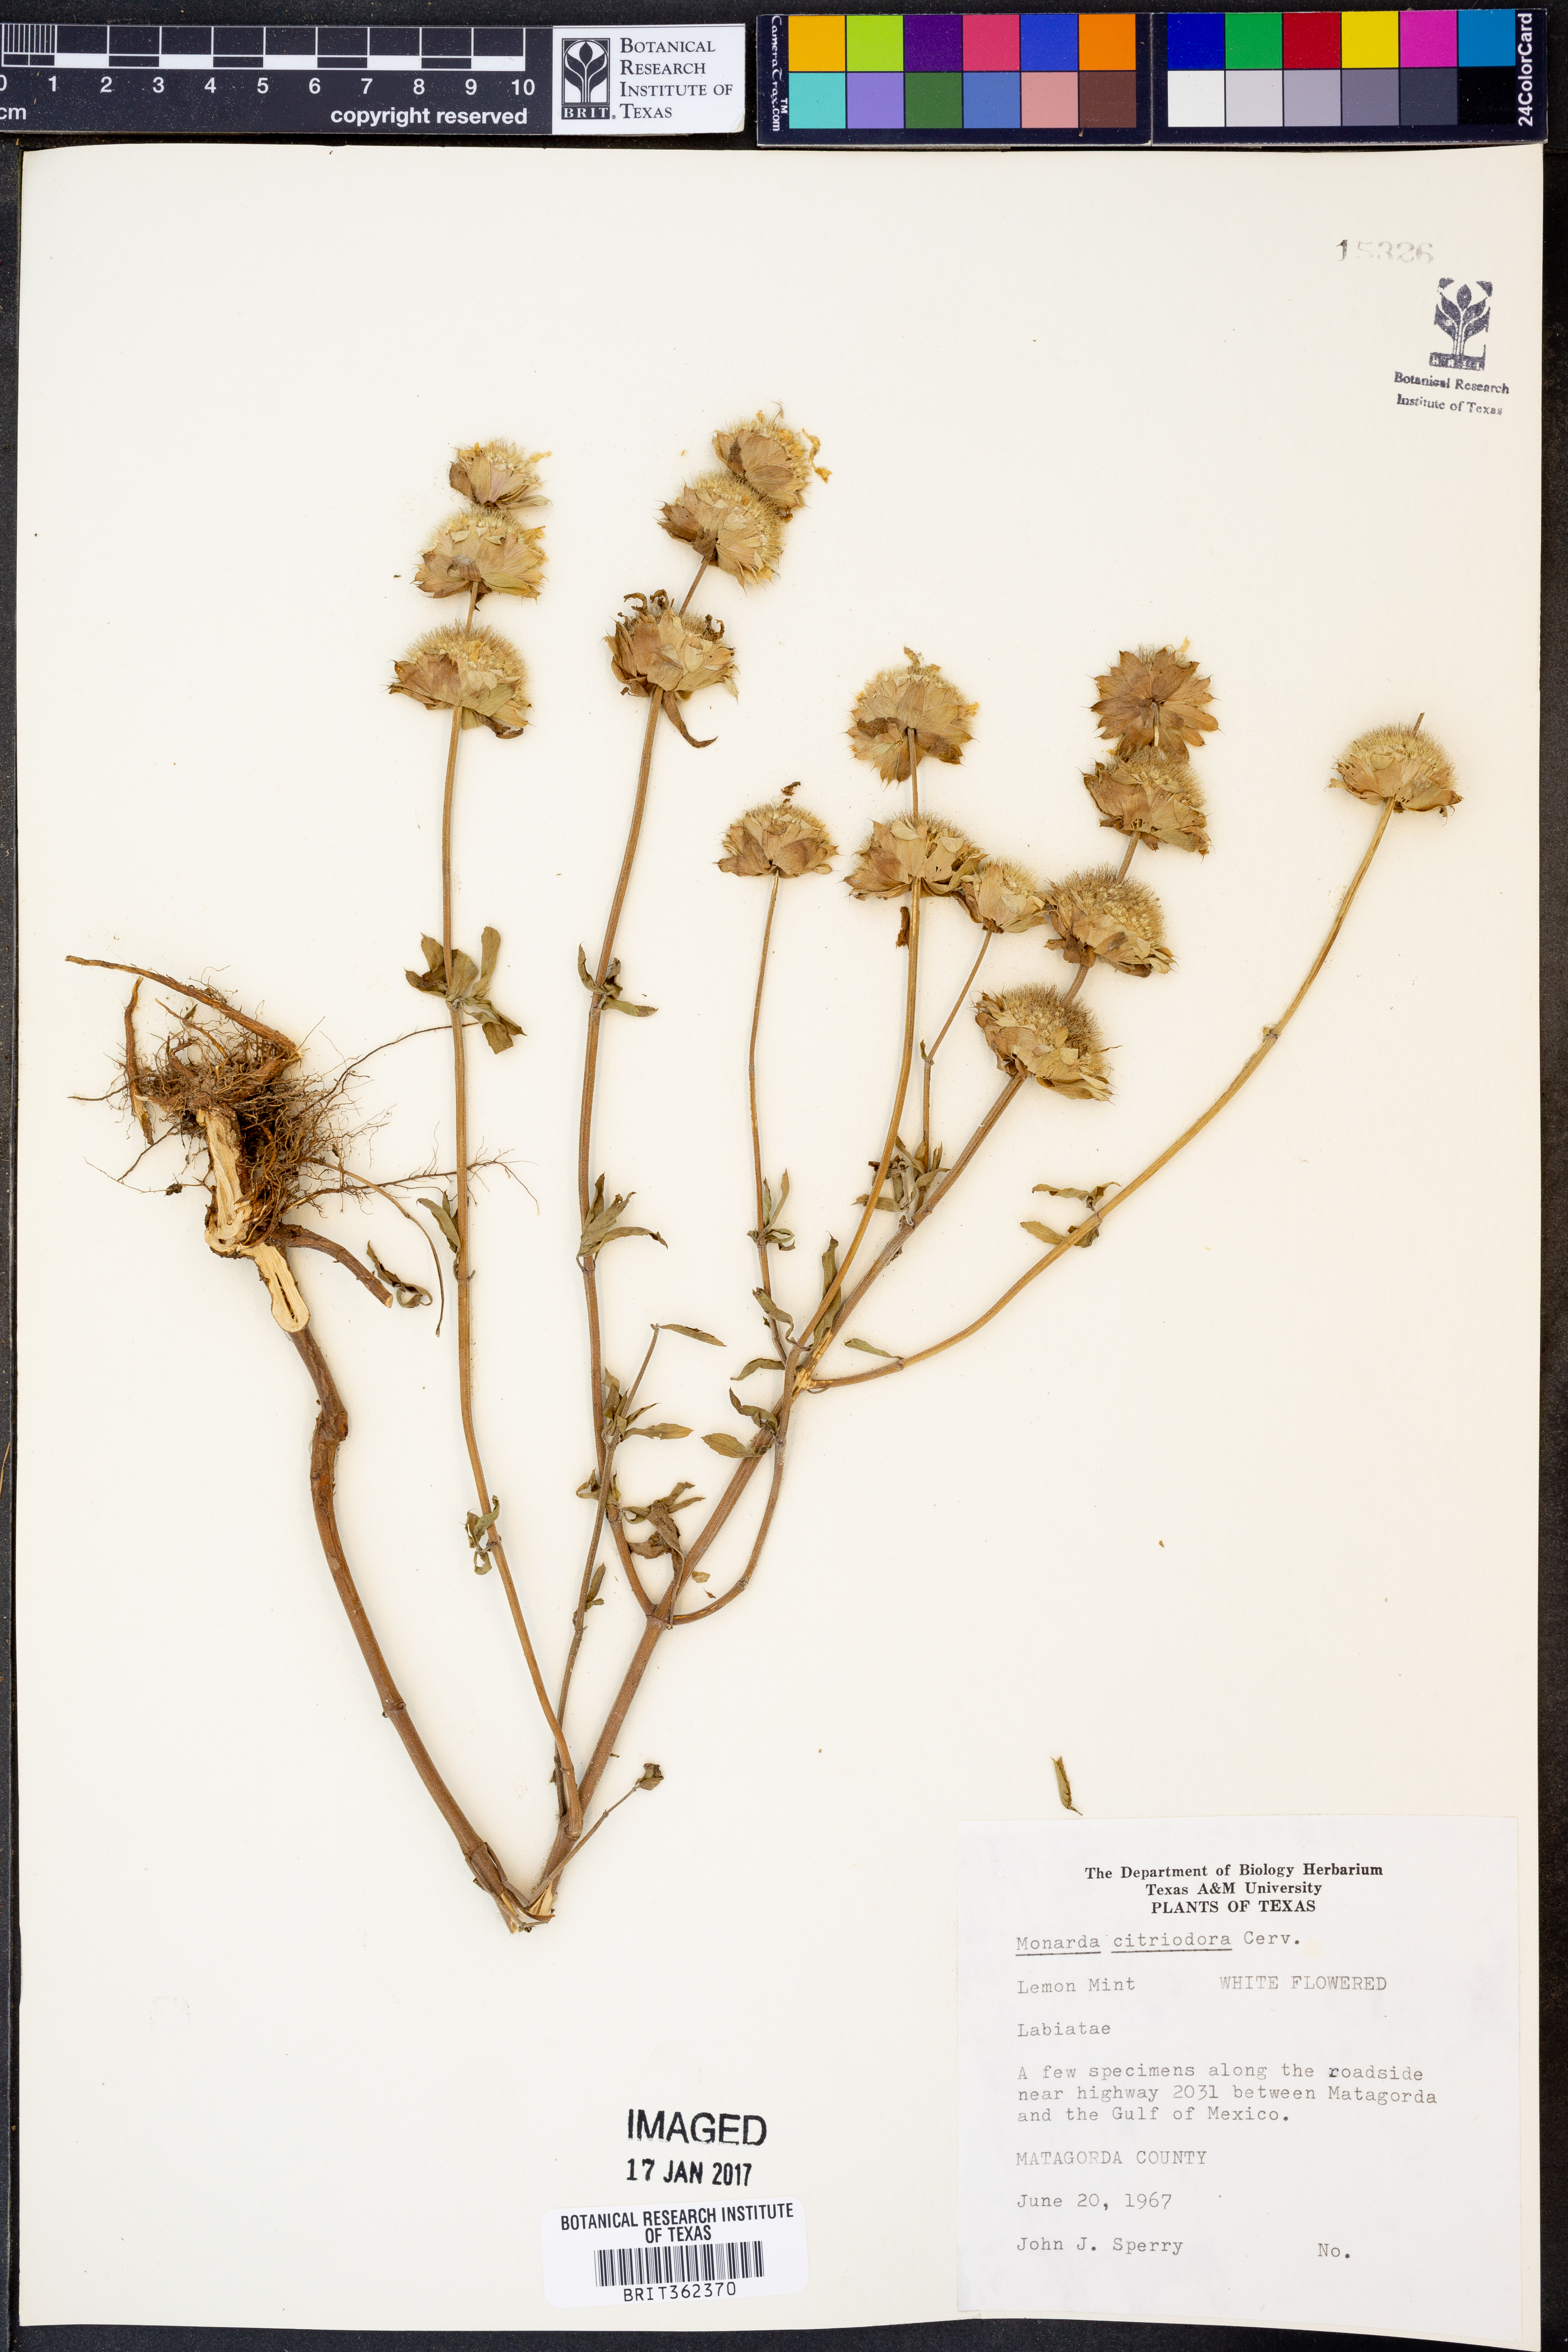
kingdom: Plantae
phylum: Tracheophyta
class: Magnoliopsida
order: Lamiales
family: Lamiaceae
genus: Monarda
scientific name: Monarda citriodora
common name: Lemon beebalm
